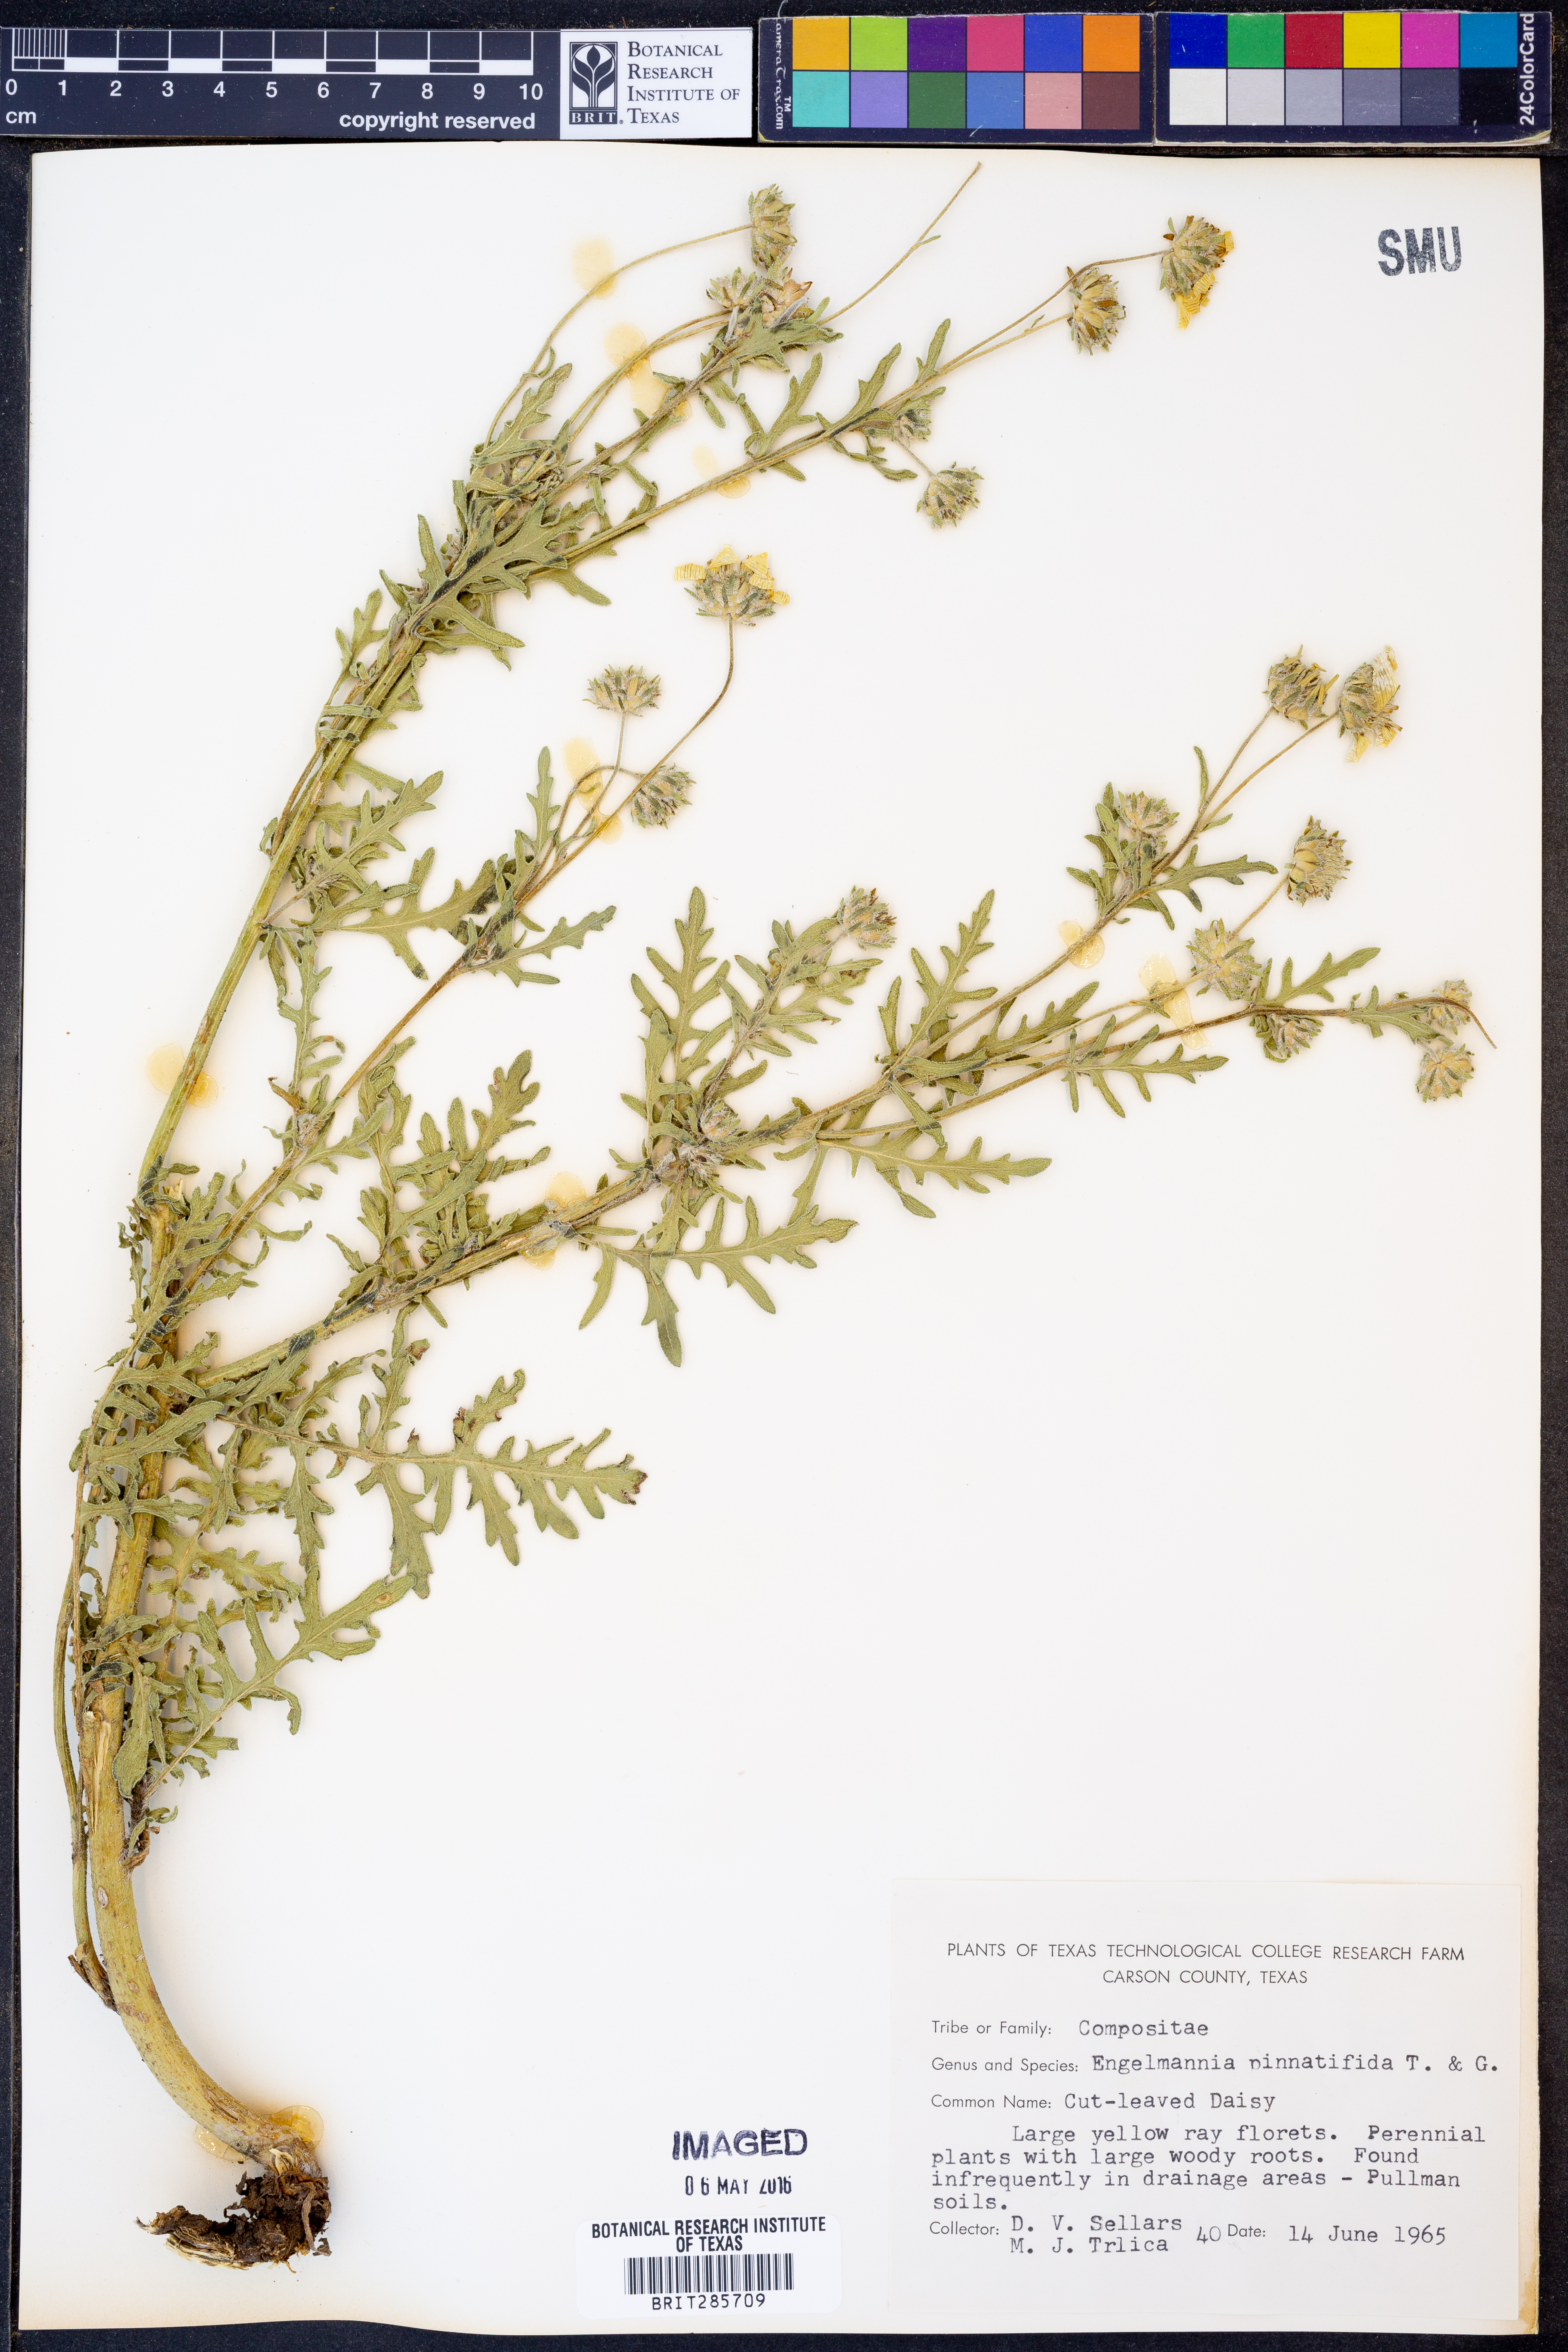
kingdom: Plantae
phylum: Tracheophyta
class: Magnoliopsida
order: Asterales
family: Asteraceae
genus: Engelmannia
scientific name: Engelmannia peristenia
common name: Engelmann's daisy
